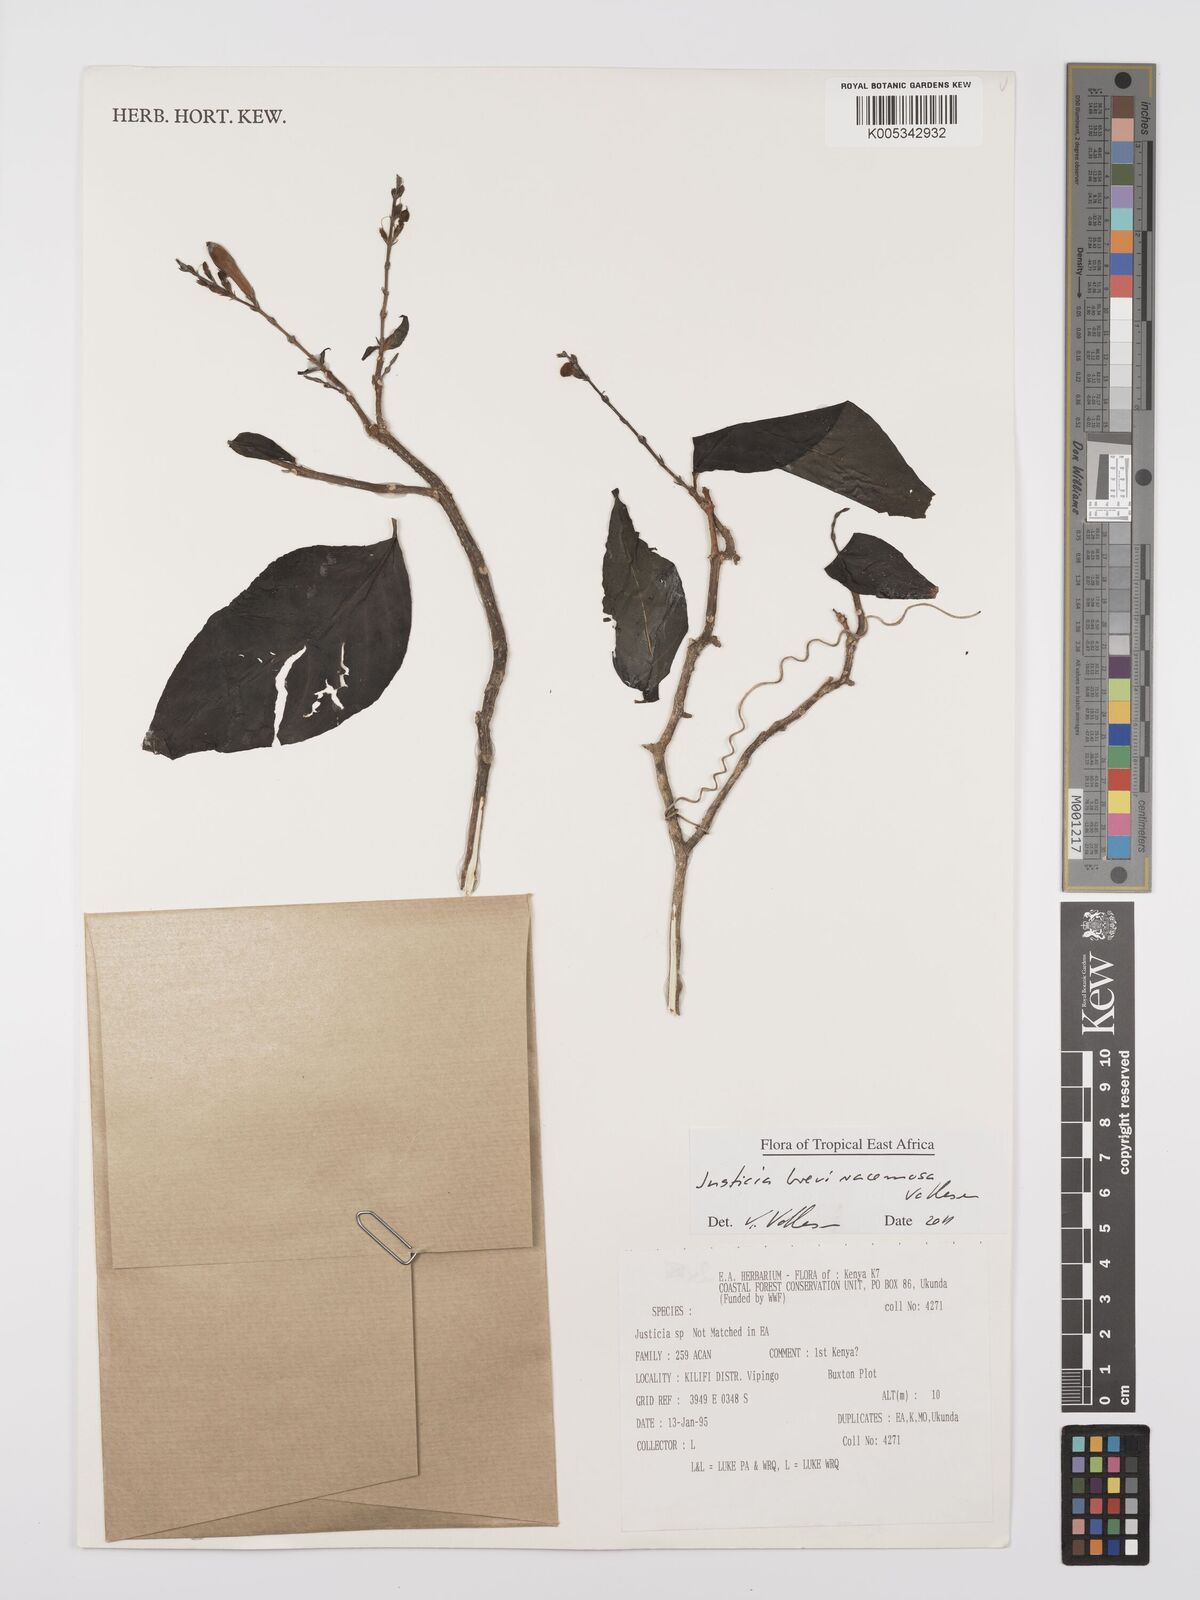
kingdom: Plantae
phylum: Tracheophyta
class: Magnoliopsida
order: Lamiales
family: Acanthaceae
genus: Justicia
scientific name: Justicia breviracemosa
